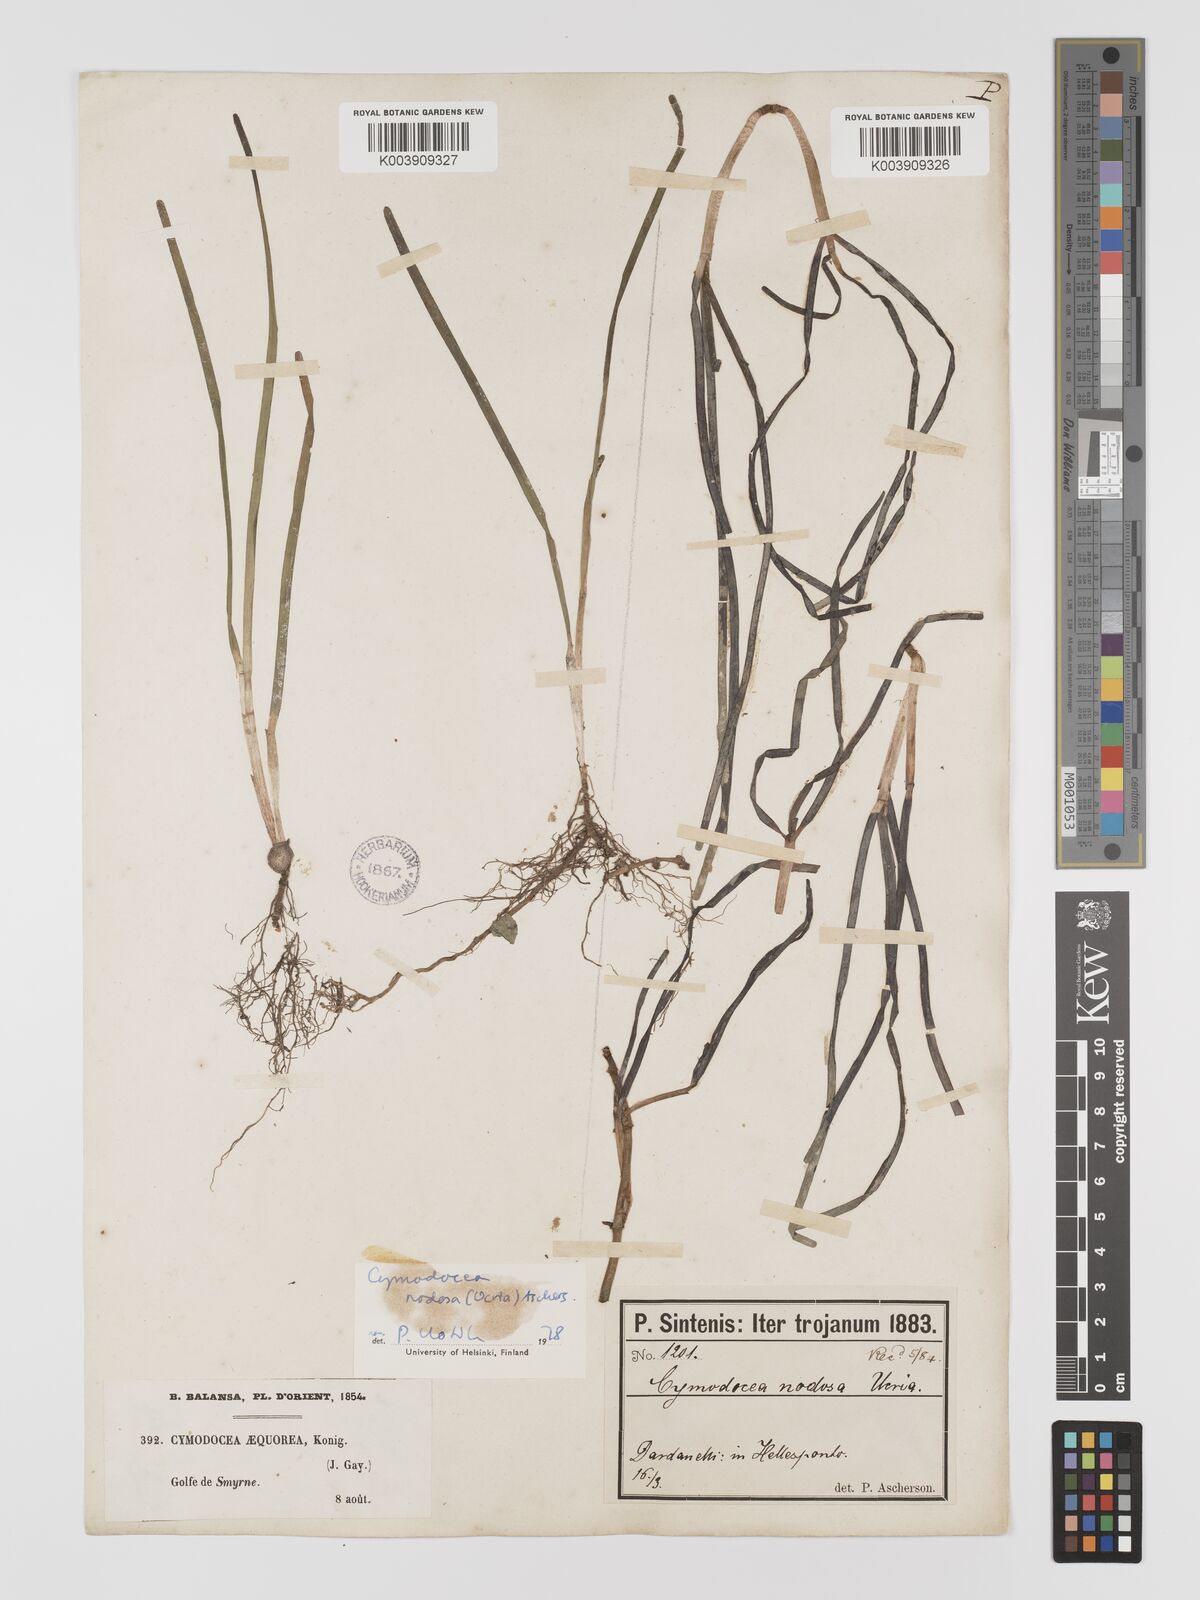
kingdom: Plantae
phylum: Tracheophyta
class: Liliopsida
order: Alismatales
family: Cymodoceaceae
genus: Cymodocea
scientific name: Cymodocea nodosa
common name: Slender seagrass
